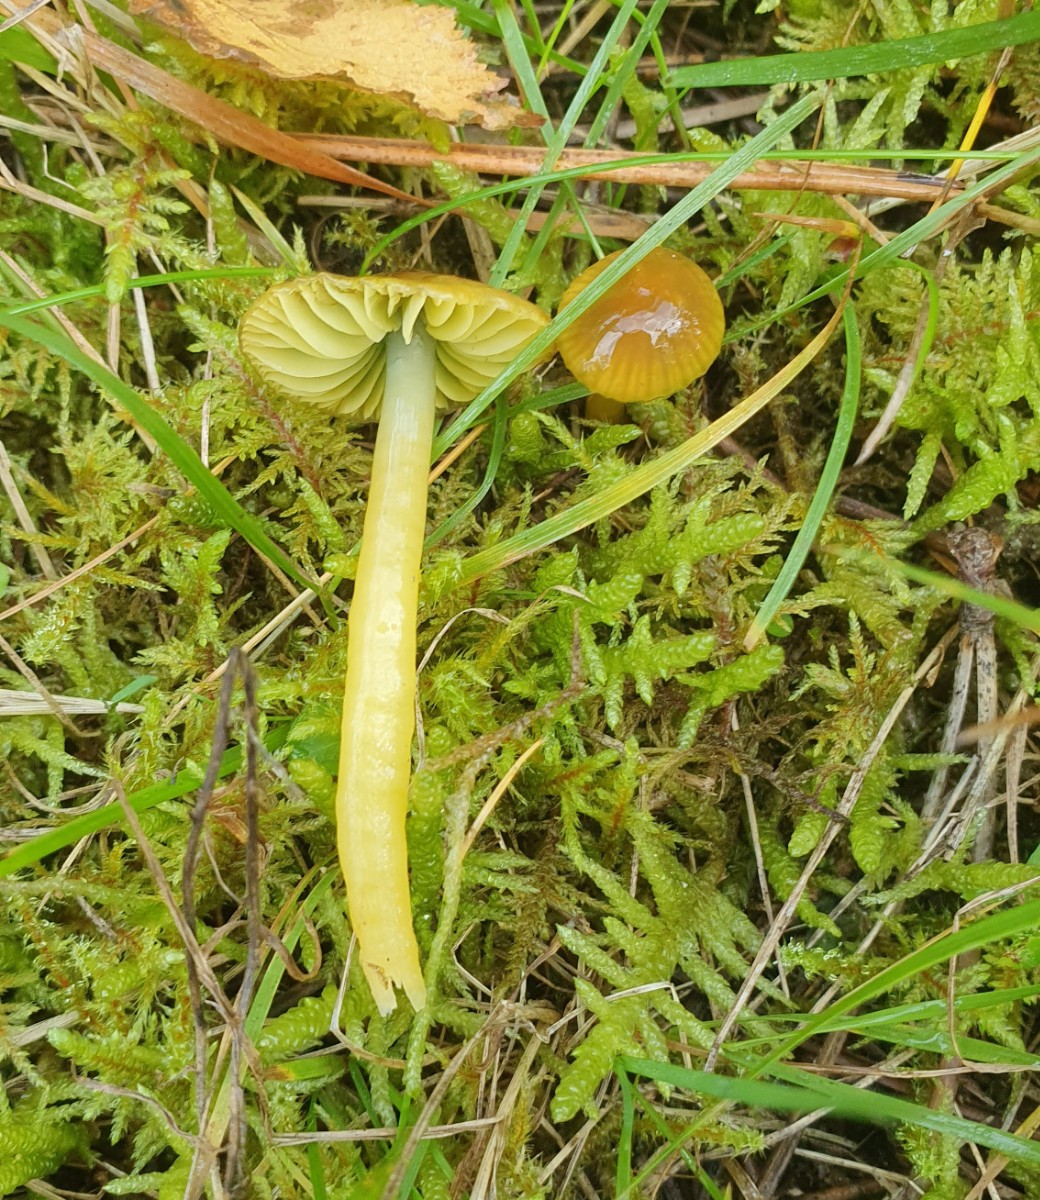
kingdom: Fungi
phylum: Basidiomycota
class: Agaricomycetes
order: Agaricales
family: Hygrophoraceae
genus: Gliophorus
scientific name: Gliophorus psittacinus
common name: papegøje-vokshat
